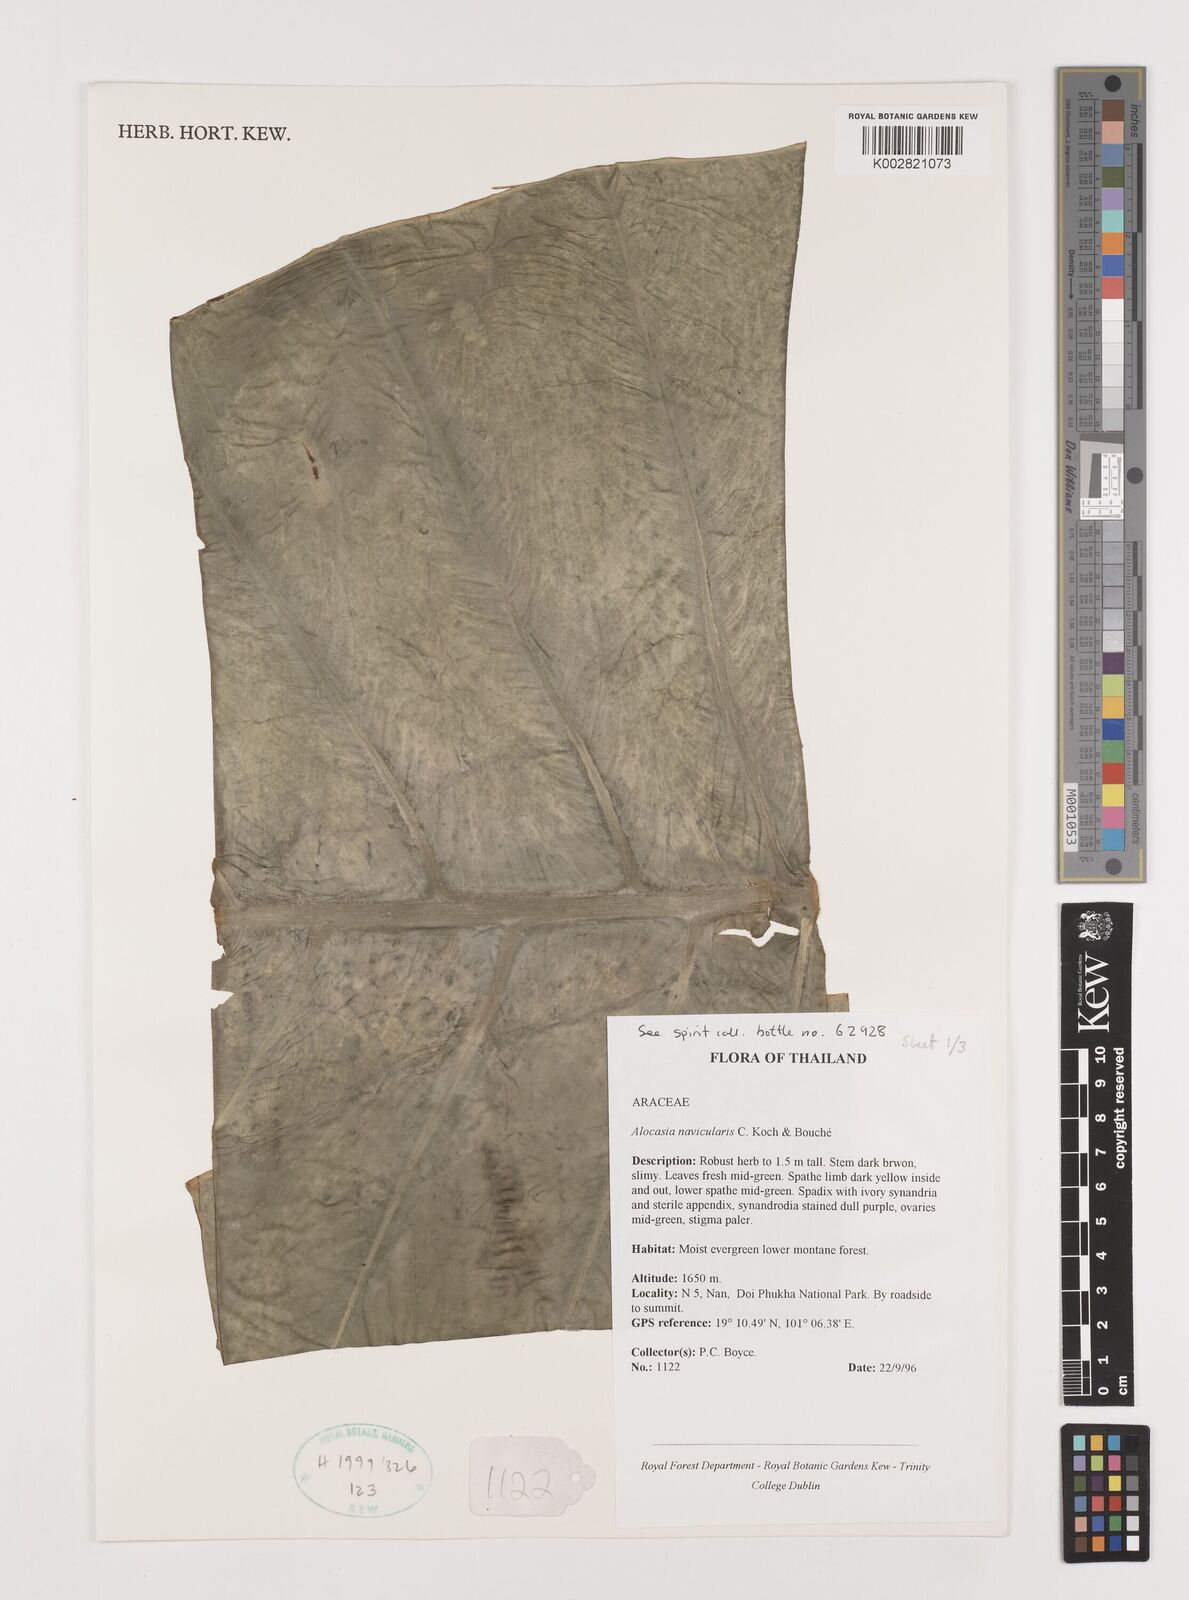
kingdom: Plantae
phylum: Tracheophyta
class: Liliopsida
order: Alismatales
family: Araceae
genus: Alocasia
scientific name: Alocasia navicularis
